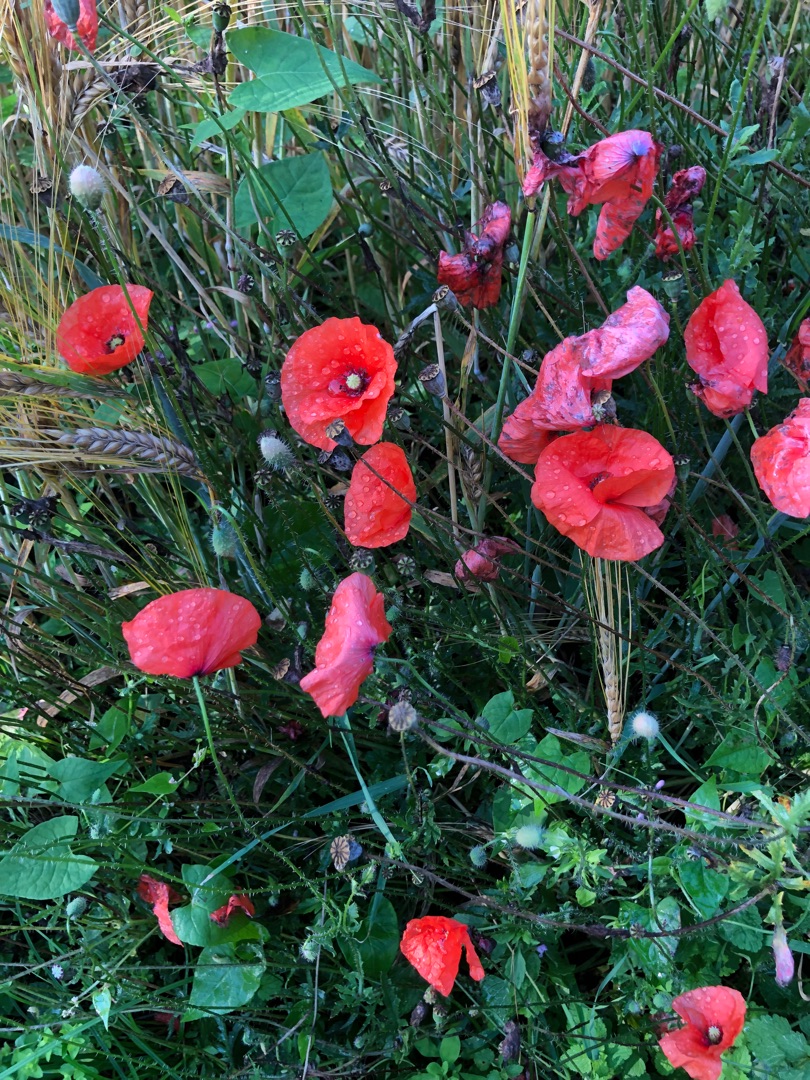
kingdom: Plantae
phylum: Tracheophyta
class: Magnoliopsida
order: Ranunculales
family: Papaveraceae
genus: Papaver
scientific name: Papaver rhoeas
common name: Korn-valmue
